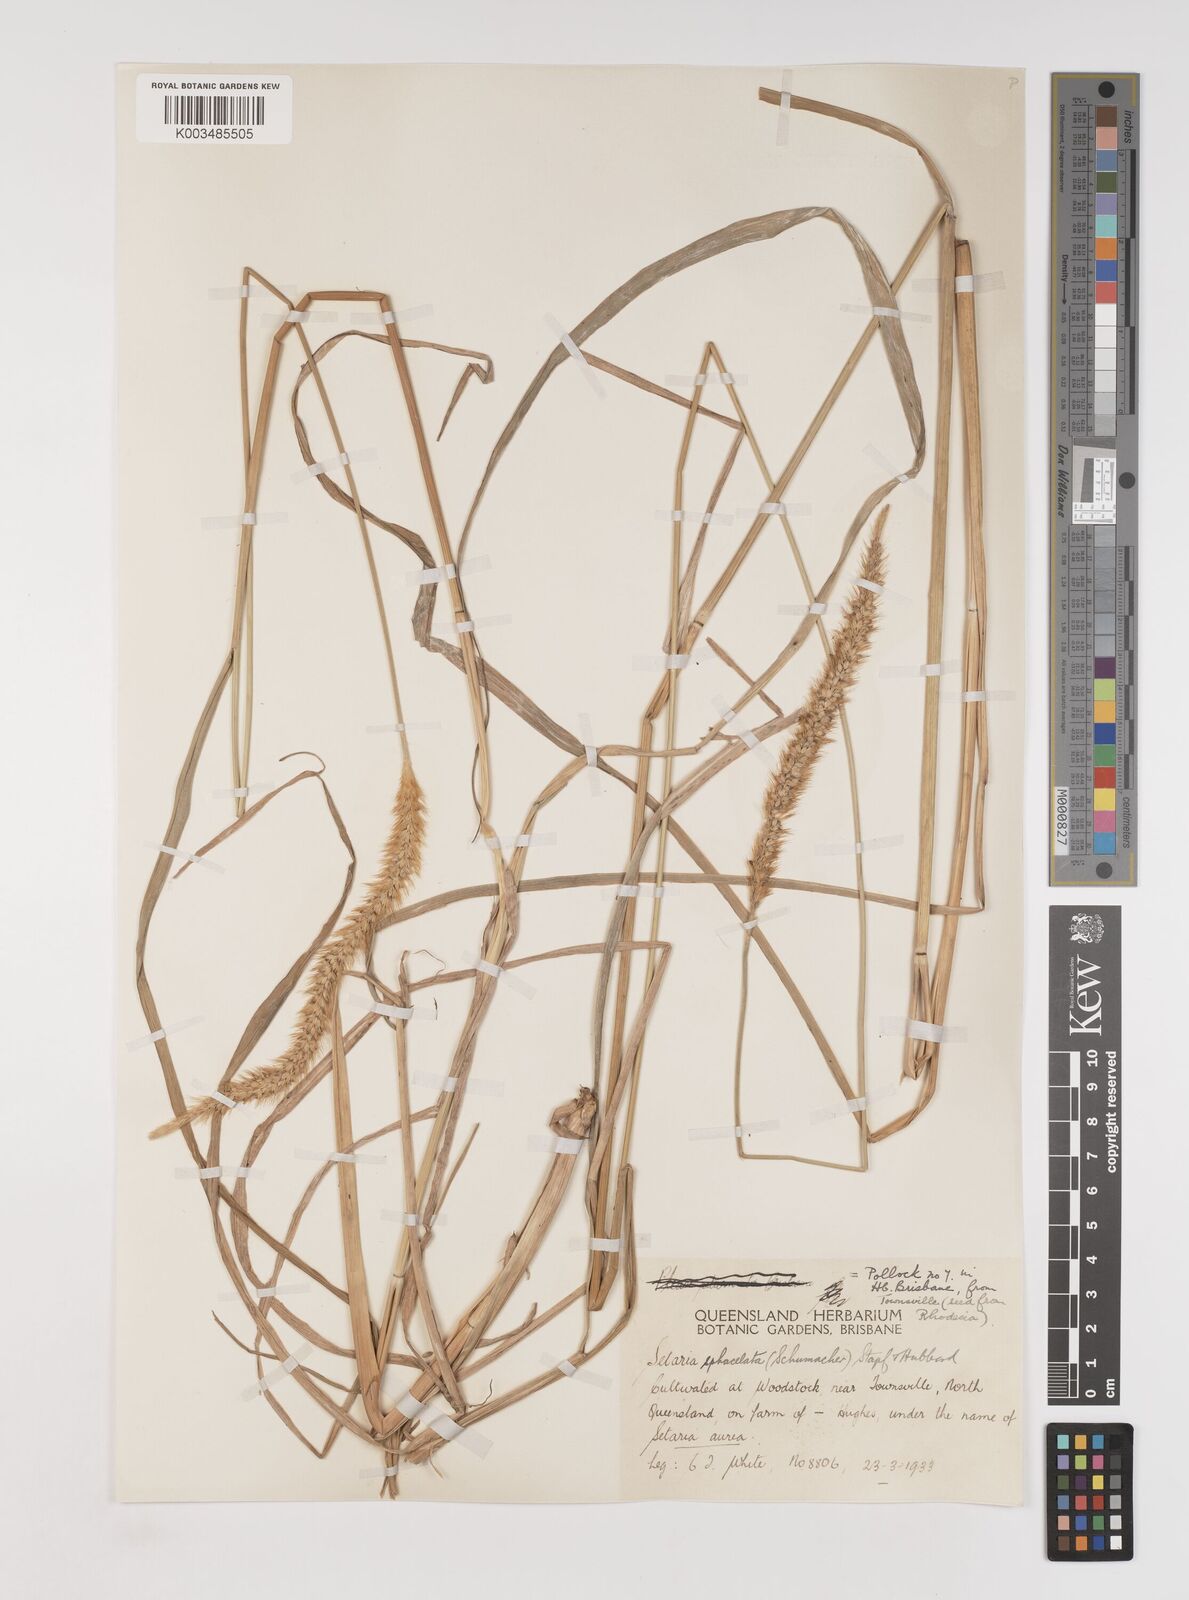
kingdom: Plantae
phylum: Tracheophyta
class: Liliopsida
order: Poales
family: Poaceae
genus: Setaria
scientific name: Setaria sphacelata
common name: African bristlegrass
